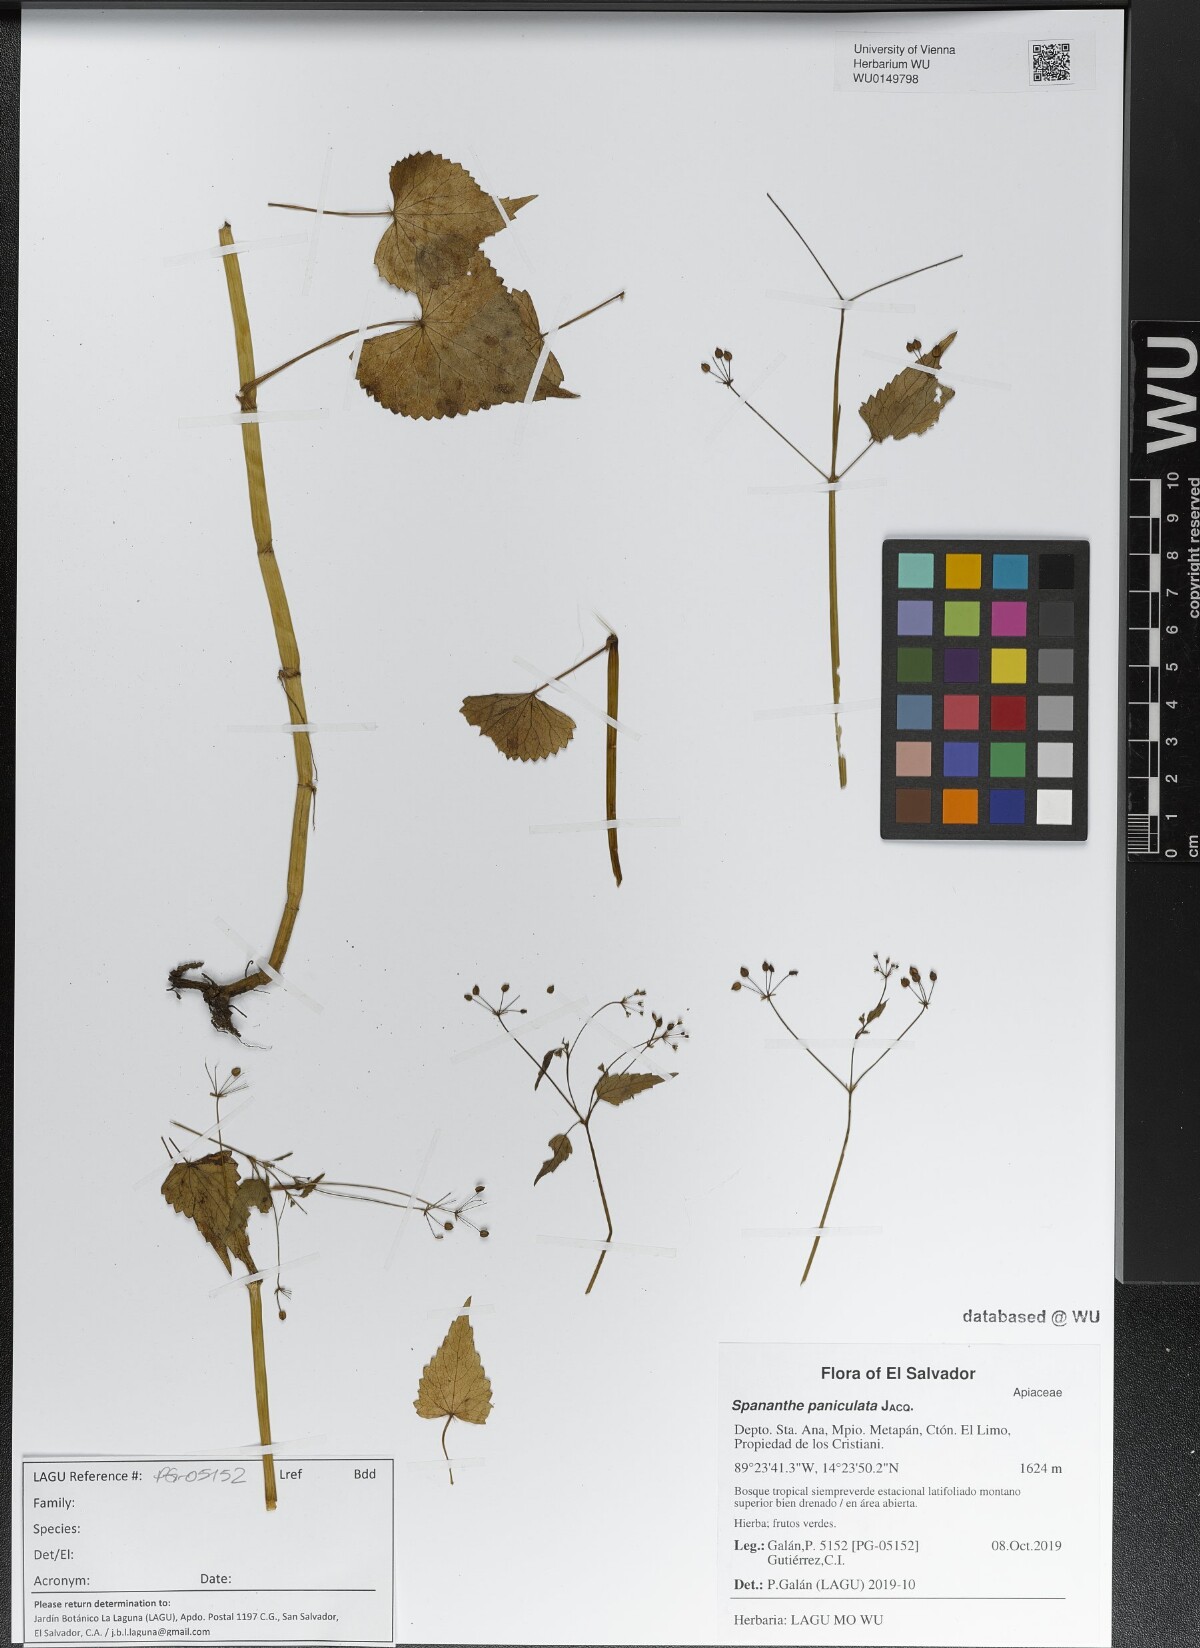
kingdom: Plantae
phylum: Tracheophyta
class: Magnoliopsida
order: Apiales
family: Apiaceae
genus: Spananthe
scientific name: Spananthe paniculata
